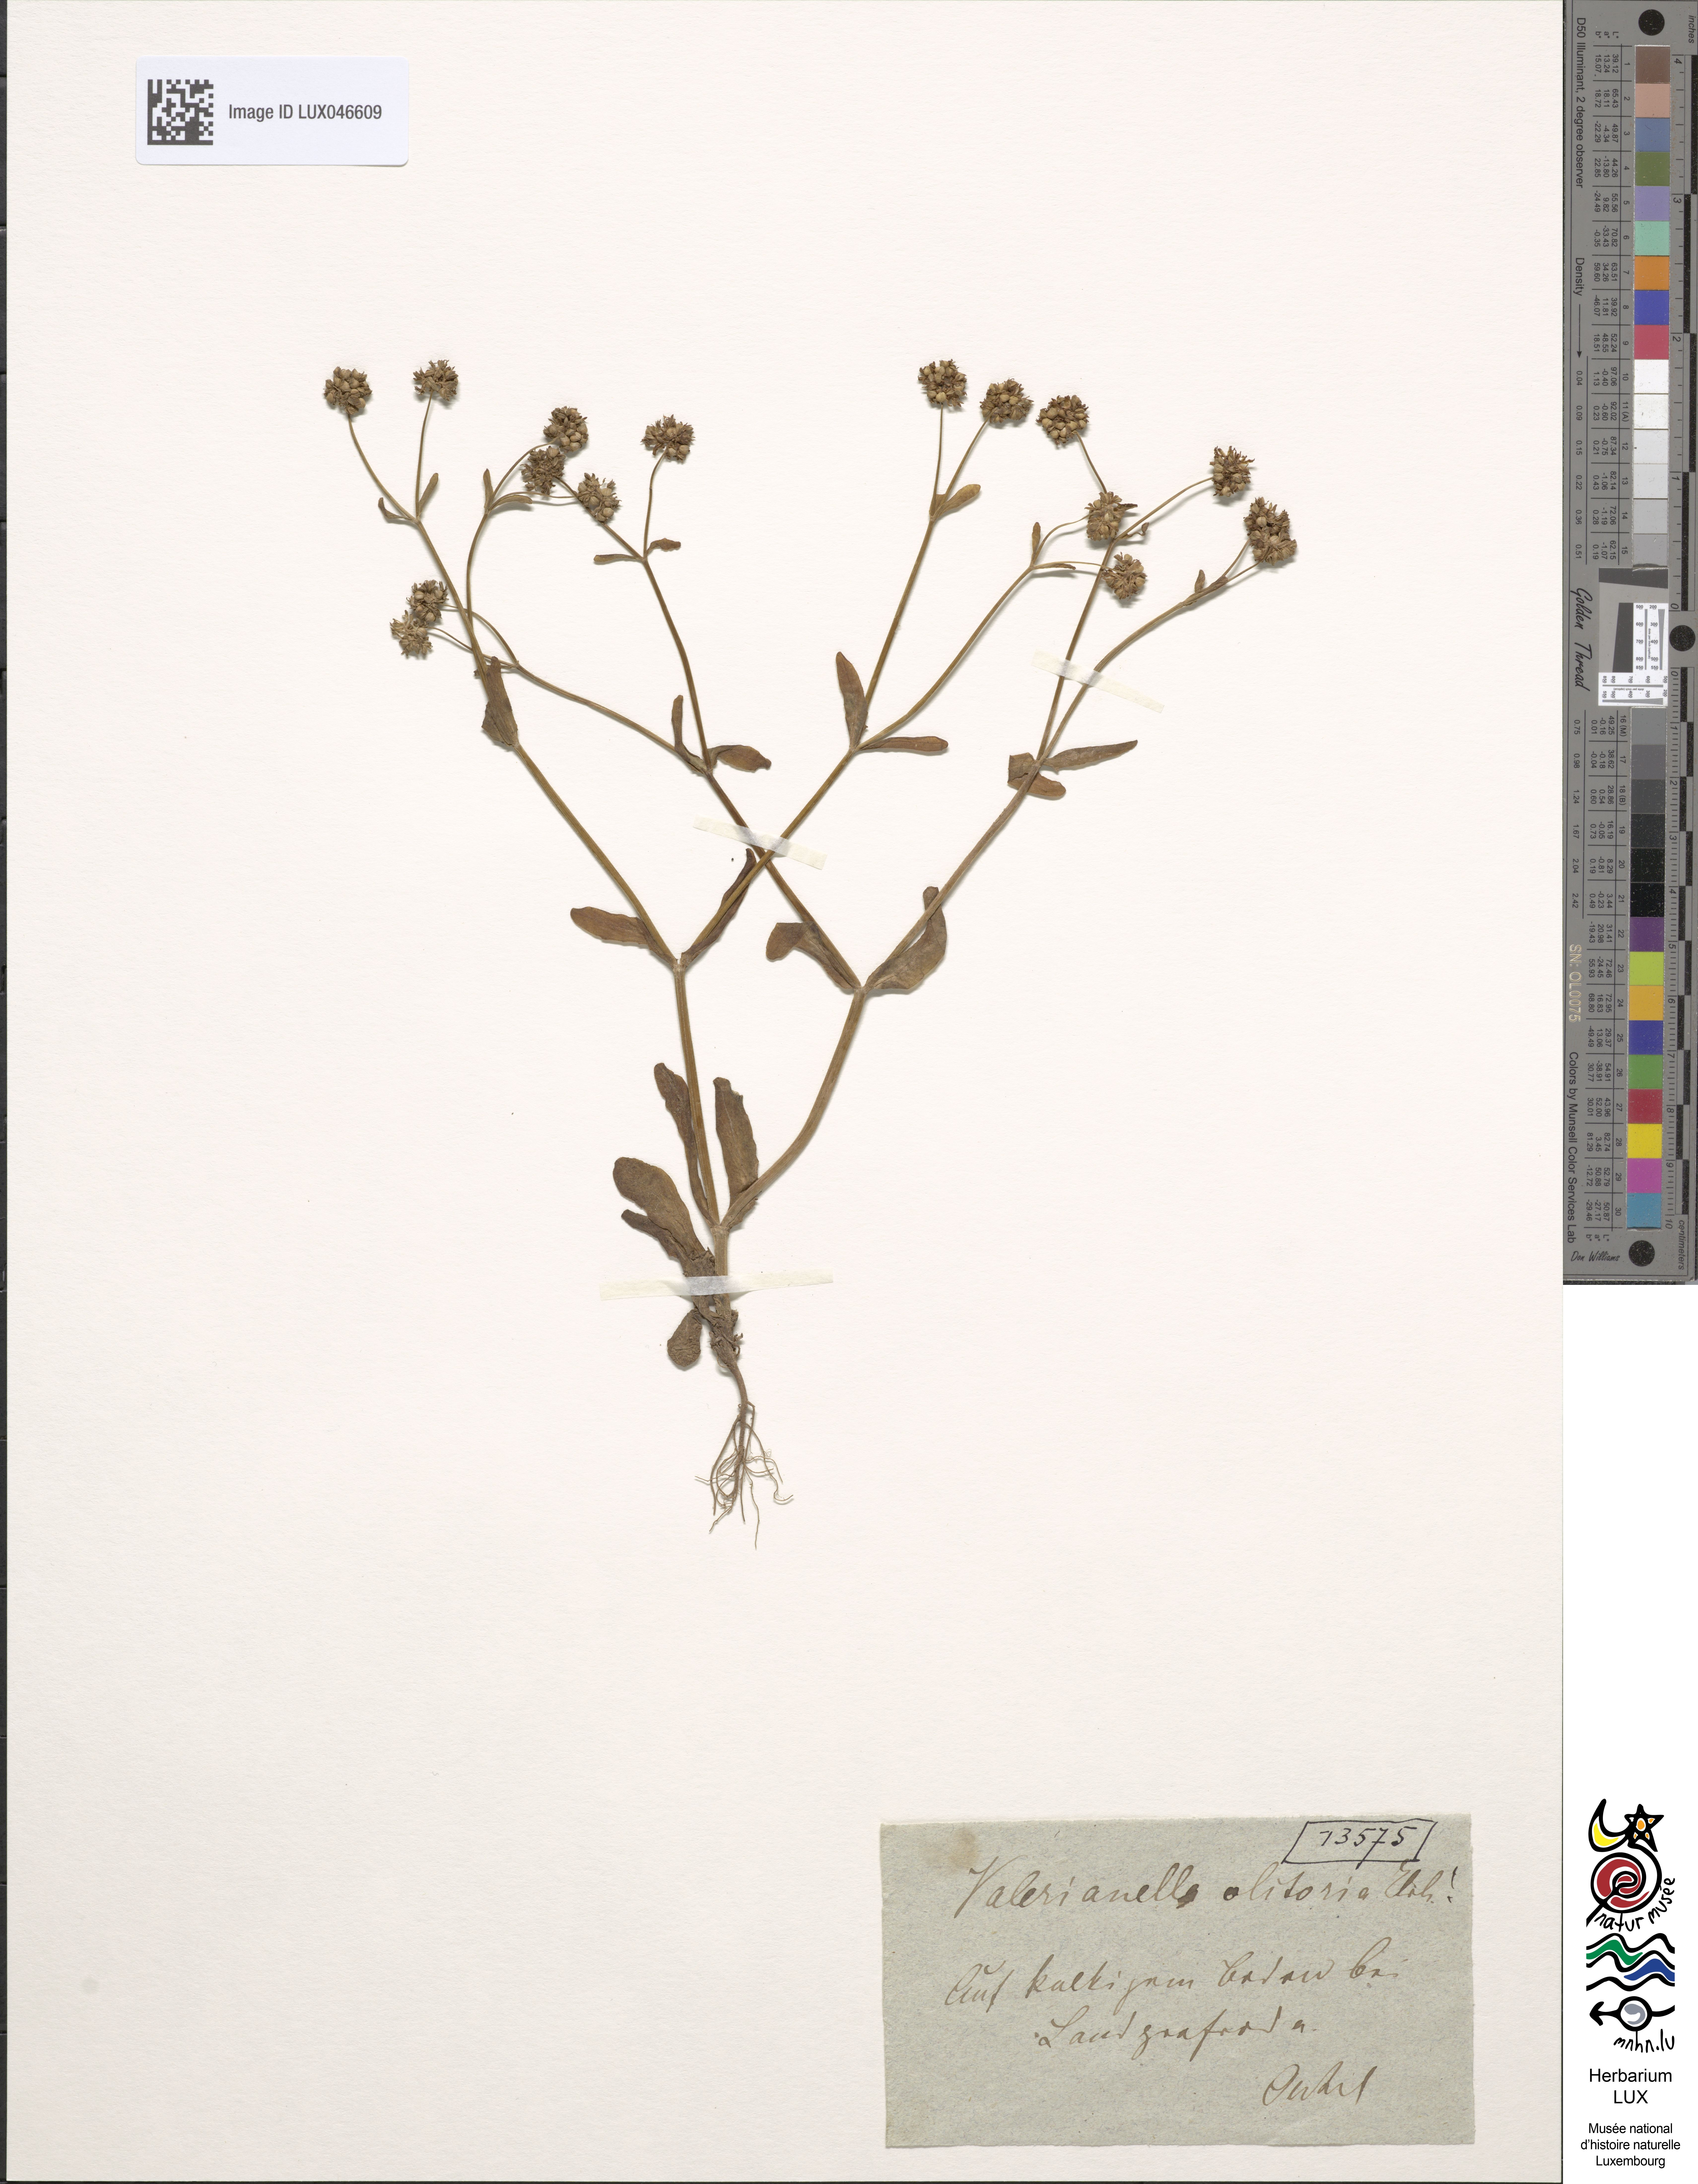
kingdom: Plantae
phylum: Tracheophyta
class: Magnoliopsida
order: Dipsacales
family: Caprifoliaceae
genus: Valerianella
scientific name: Valerianella locusta
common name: Common cornsalad
